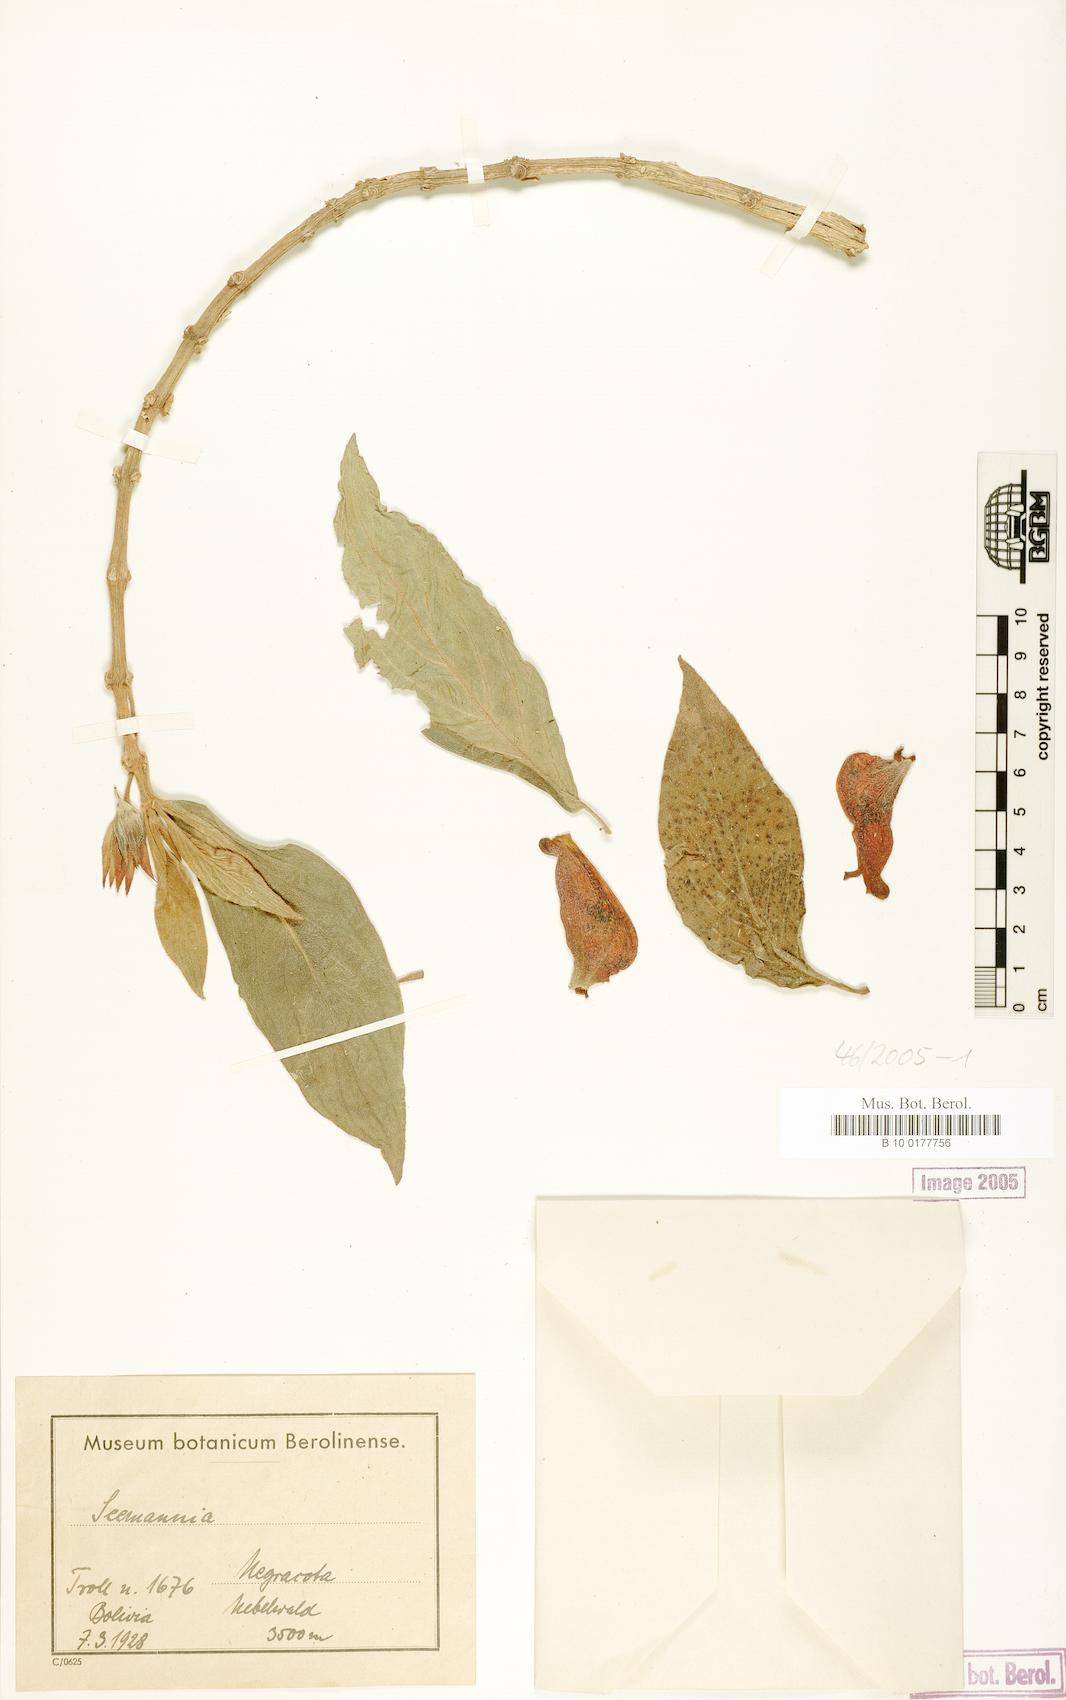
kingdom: Plantae
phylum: Tracheophyta
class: Magnoliopsida
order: Lamiales
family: Gesneriaceae
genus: Seemannia
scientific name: Seemannia
